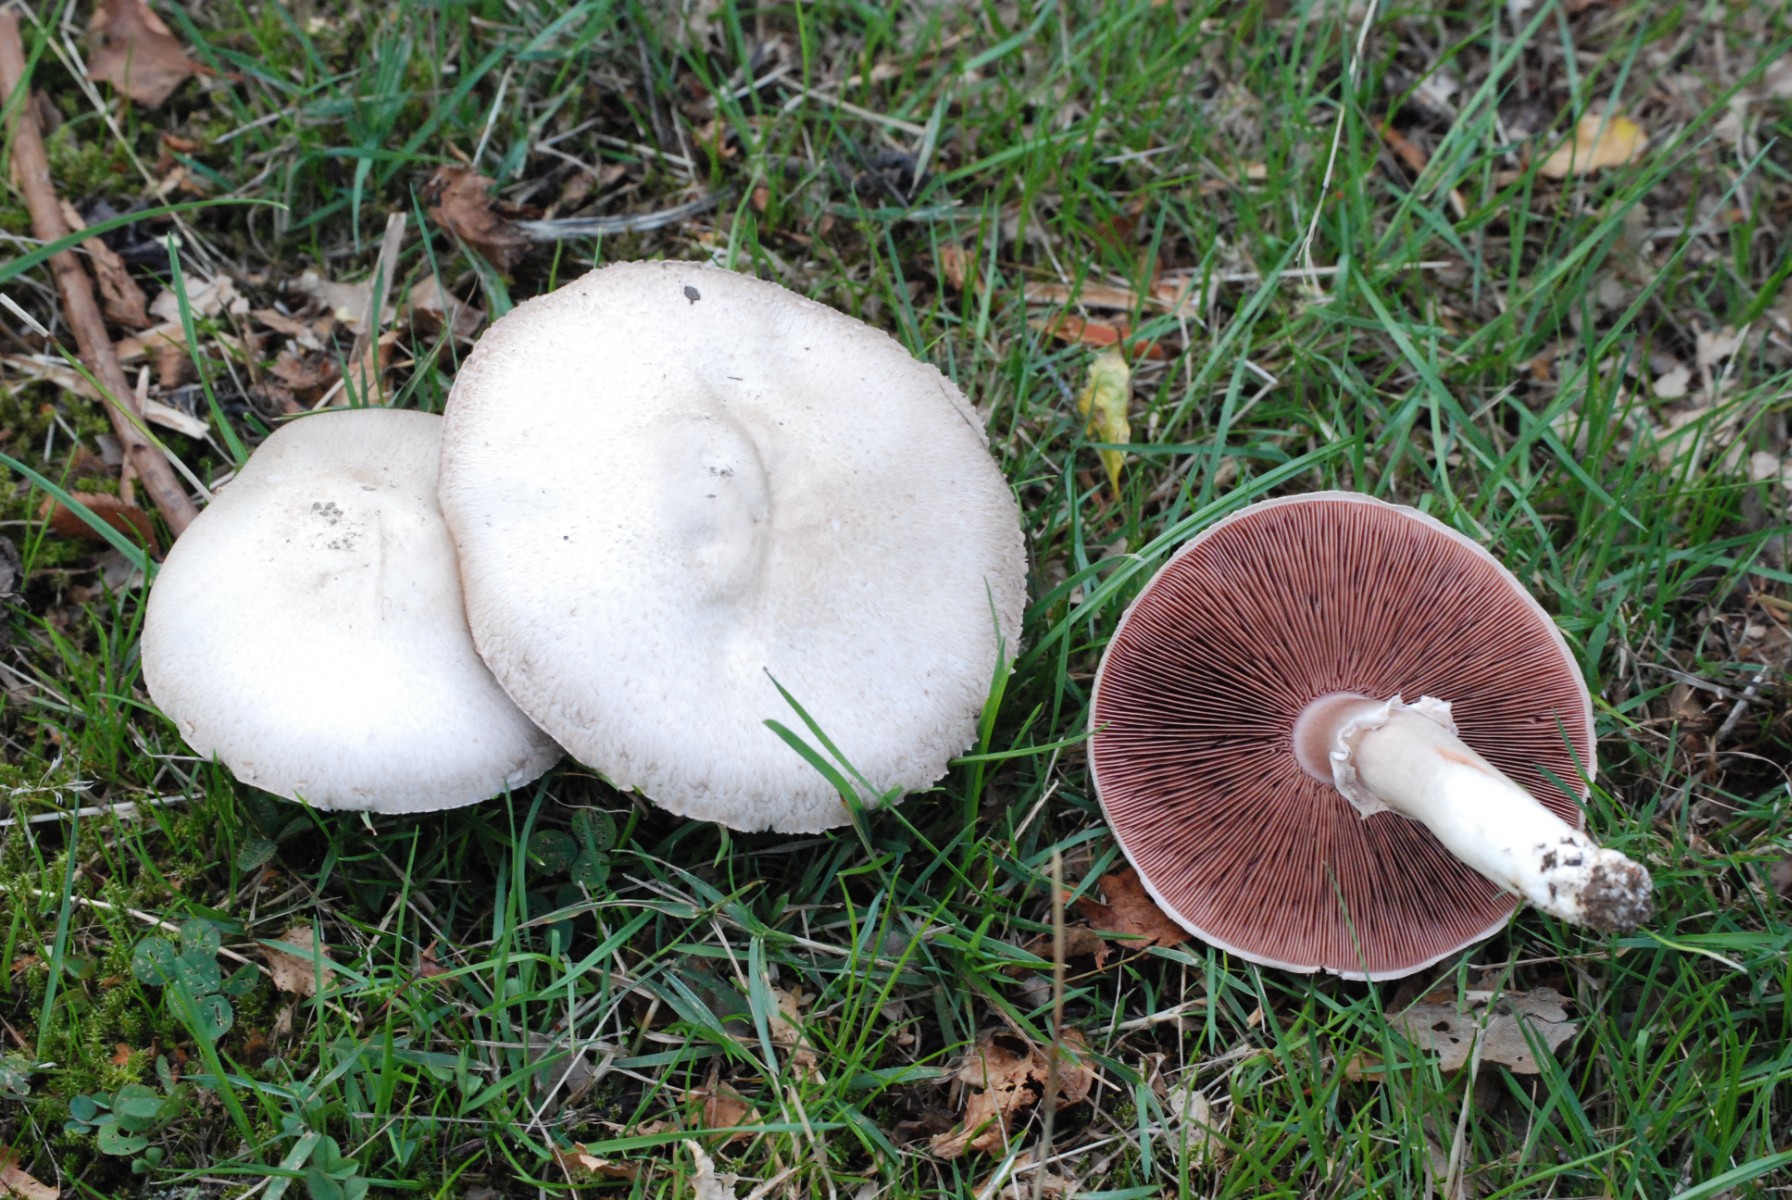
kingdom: Fungi
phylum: Basidiomycota
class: Agaricomycetes
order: Agaricales
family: Agaricaceae
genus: Agaricus
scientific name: Agaricus campestris
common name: mark-champignon
